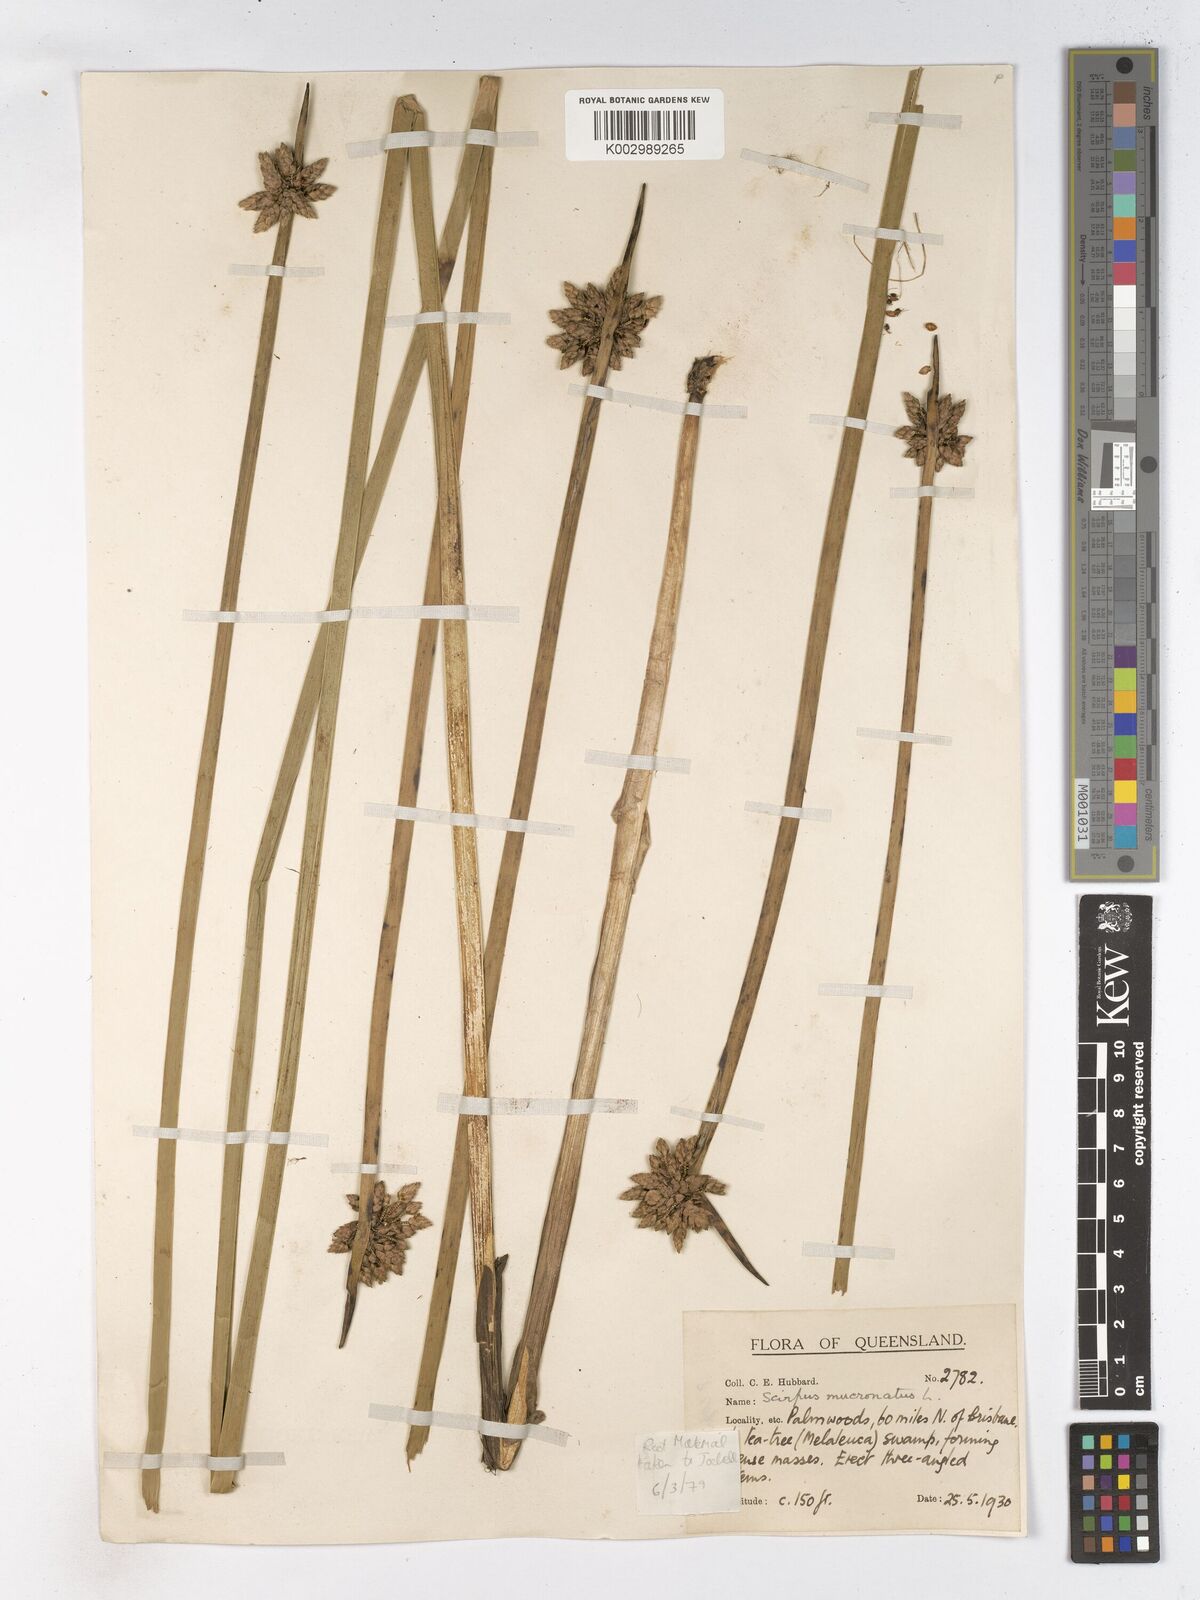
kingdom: Plantae
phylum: Tracheophyta
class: Liliopsida
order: Poales
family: Cyperaceae
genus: Schoenoplectiella
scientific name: Schoenoplectiella mucronata
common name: Bog bulrush
